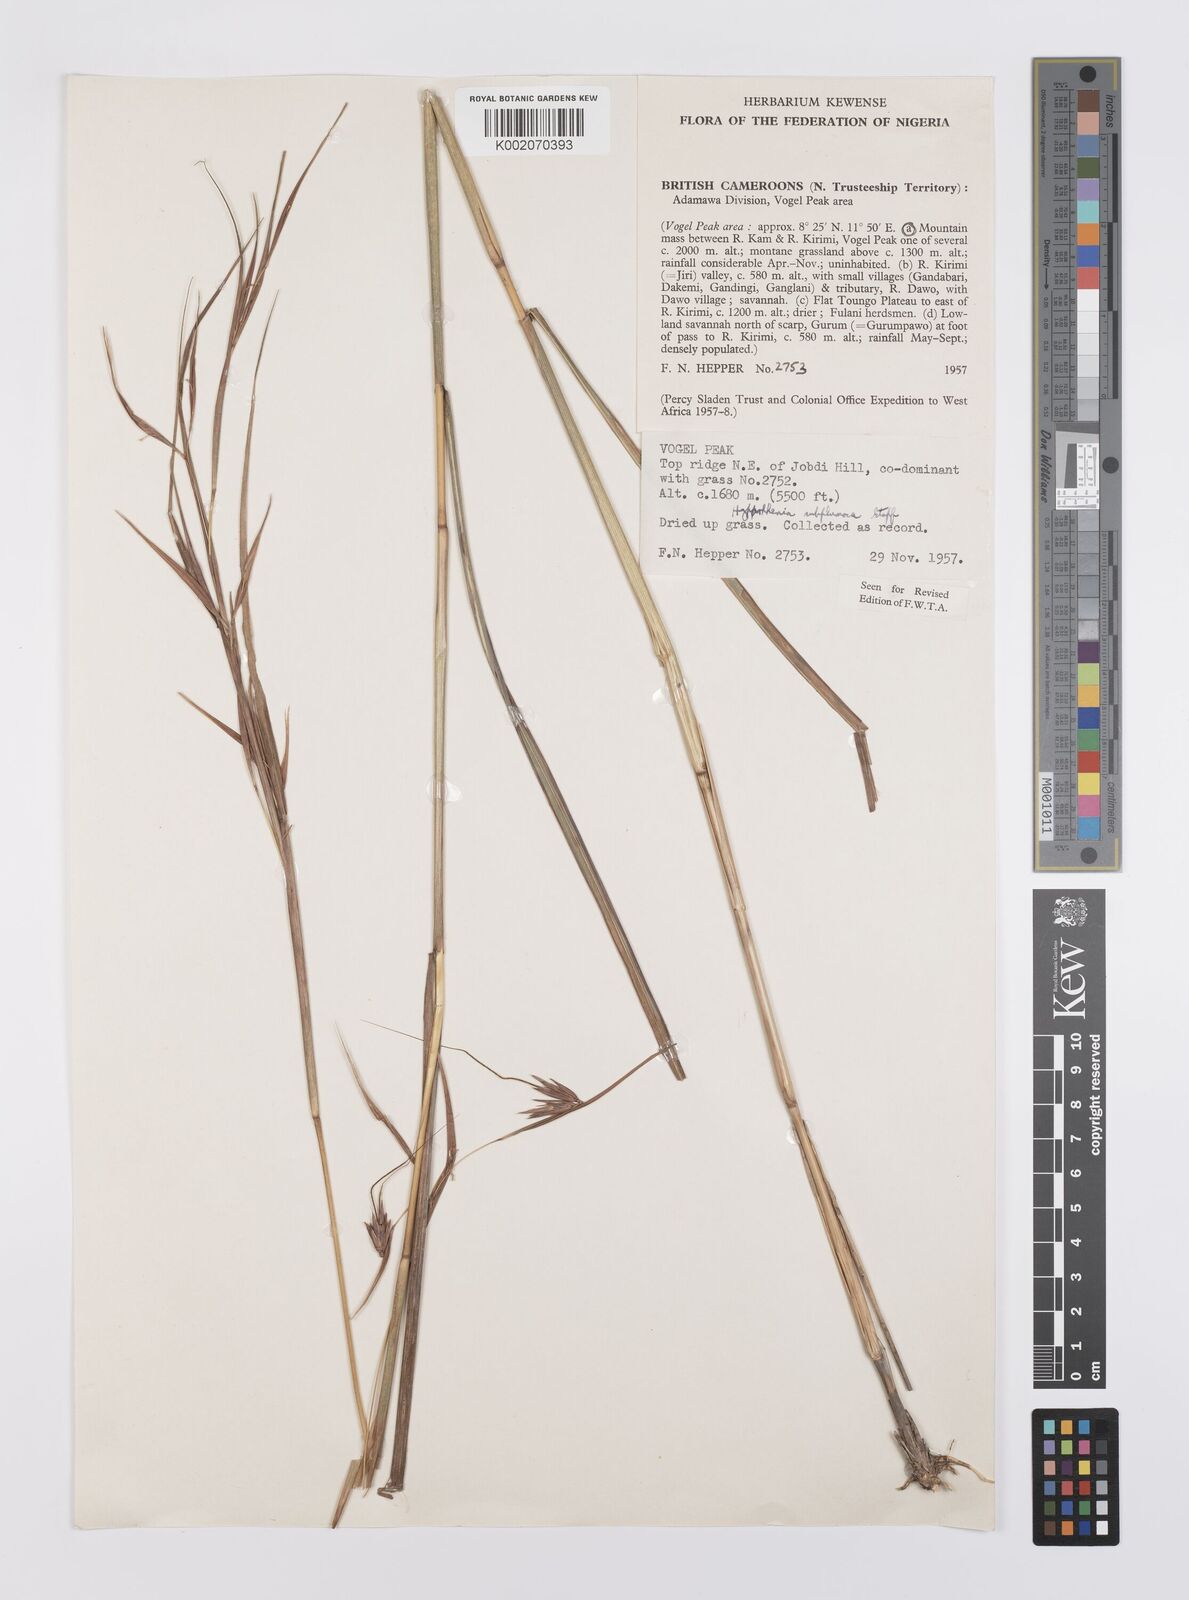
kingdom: Plantae
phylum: Tracheophyta
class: Liliopsida
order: Poales
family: Poaceae
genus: Hyparrhenia
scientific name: Hyparrhenia subplumosa
